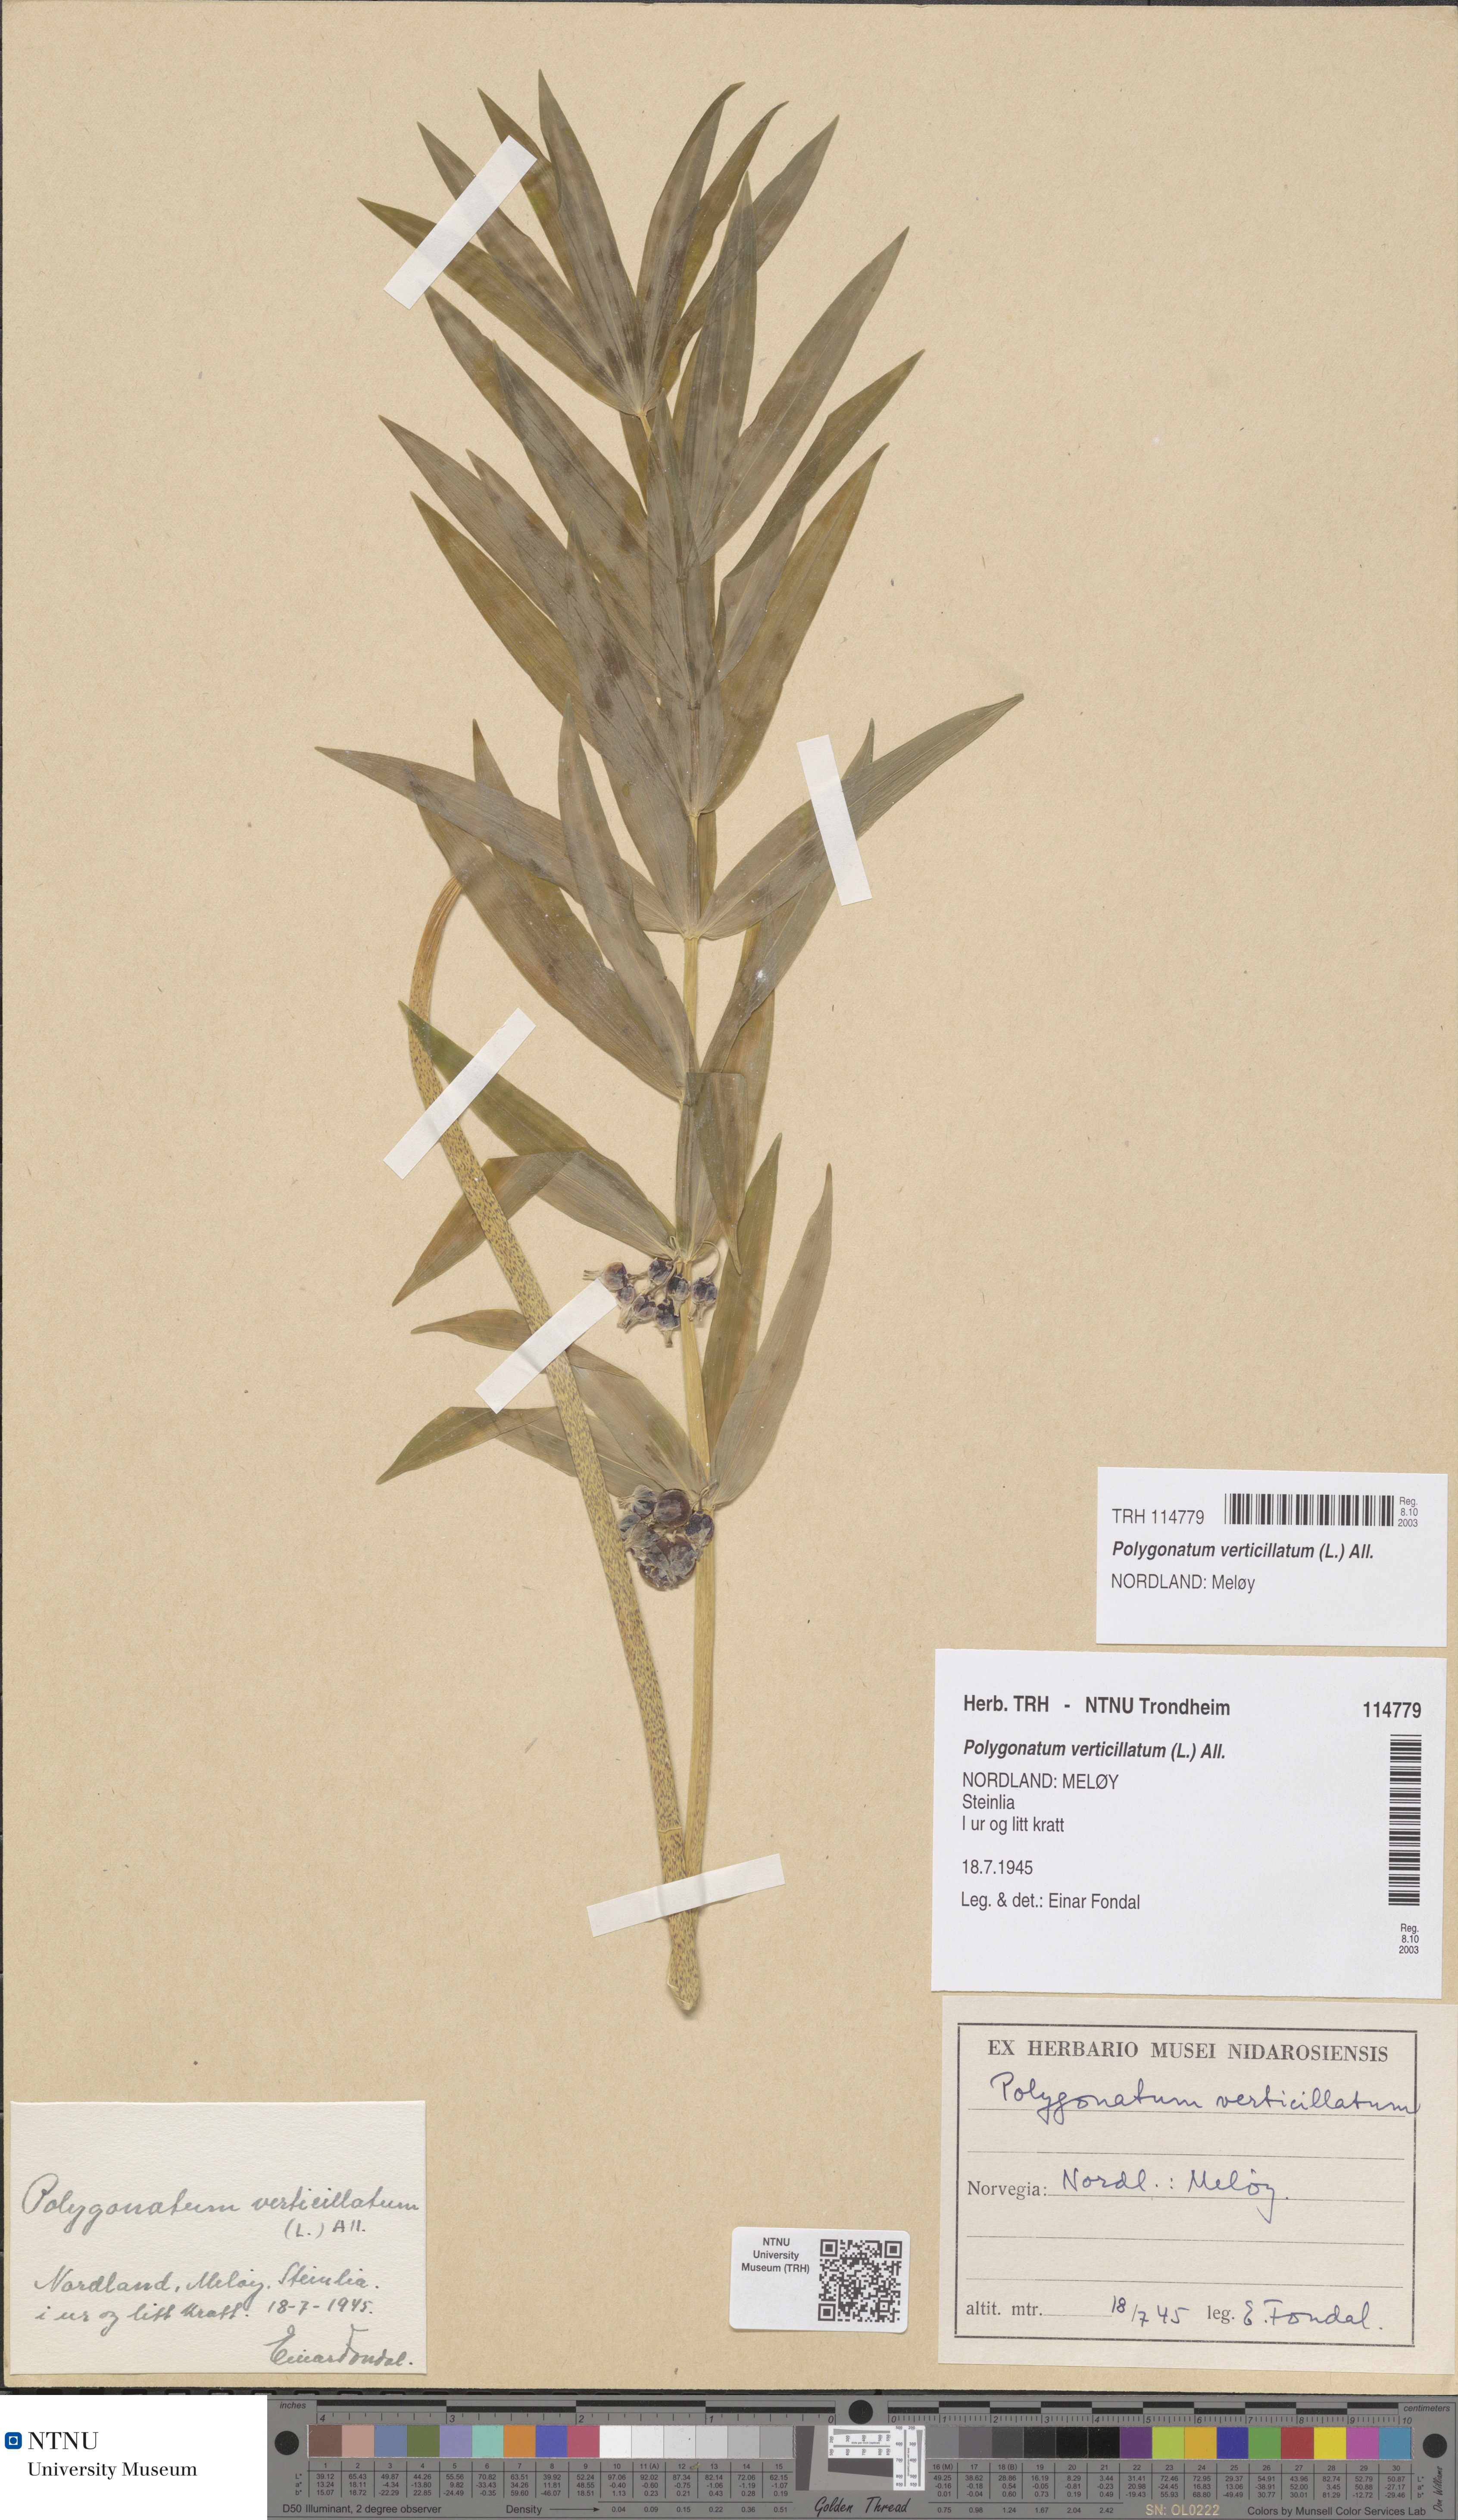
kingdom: Plantae
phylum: Tracheophyta
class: Liliopsida
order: Asparagales
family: Asparagaceae
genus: Polygonatum
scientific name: Polygonatum verticillatum
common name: Whorled solomon's-seal
